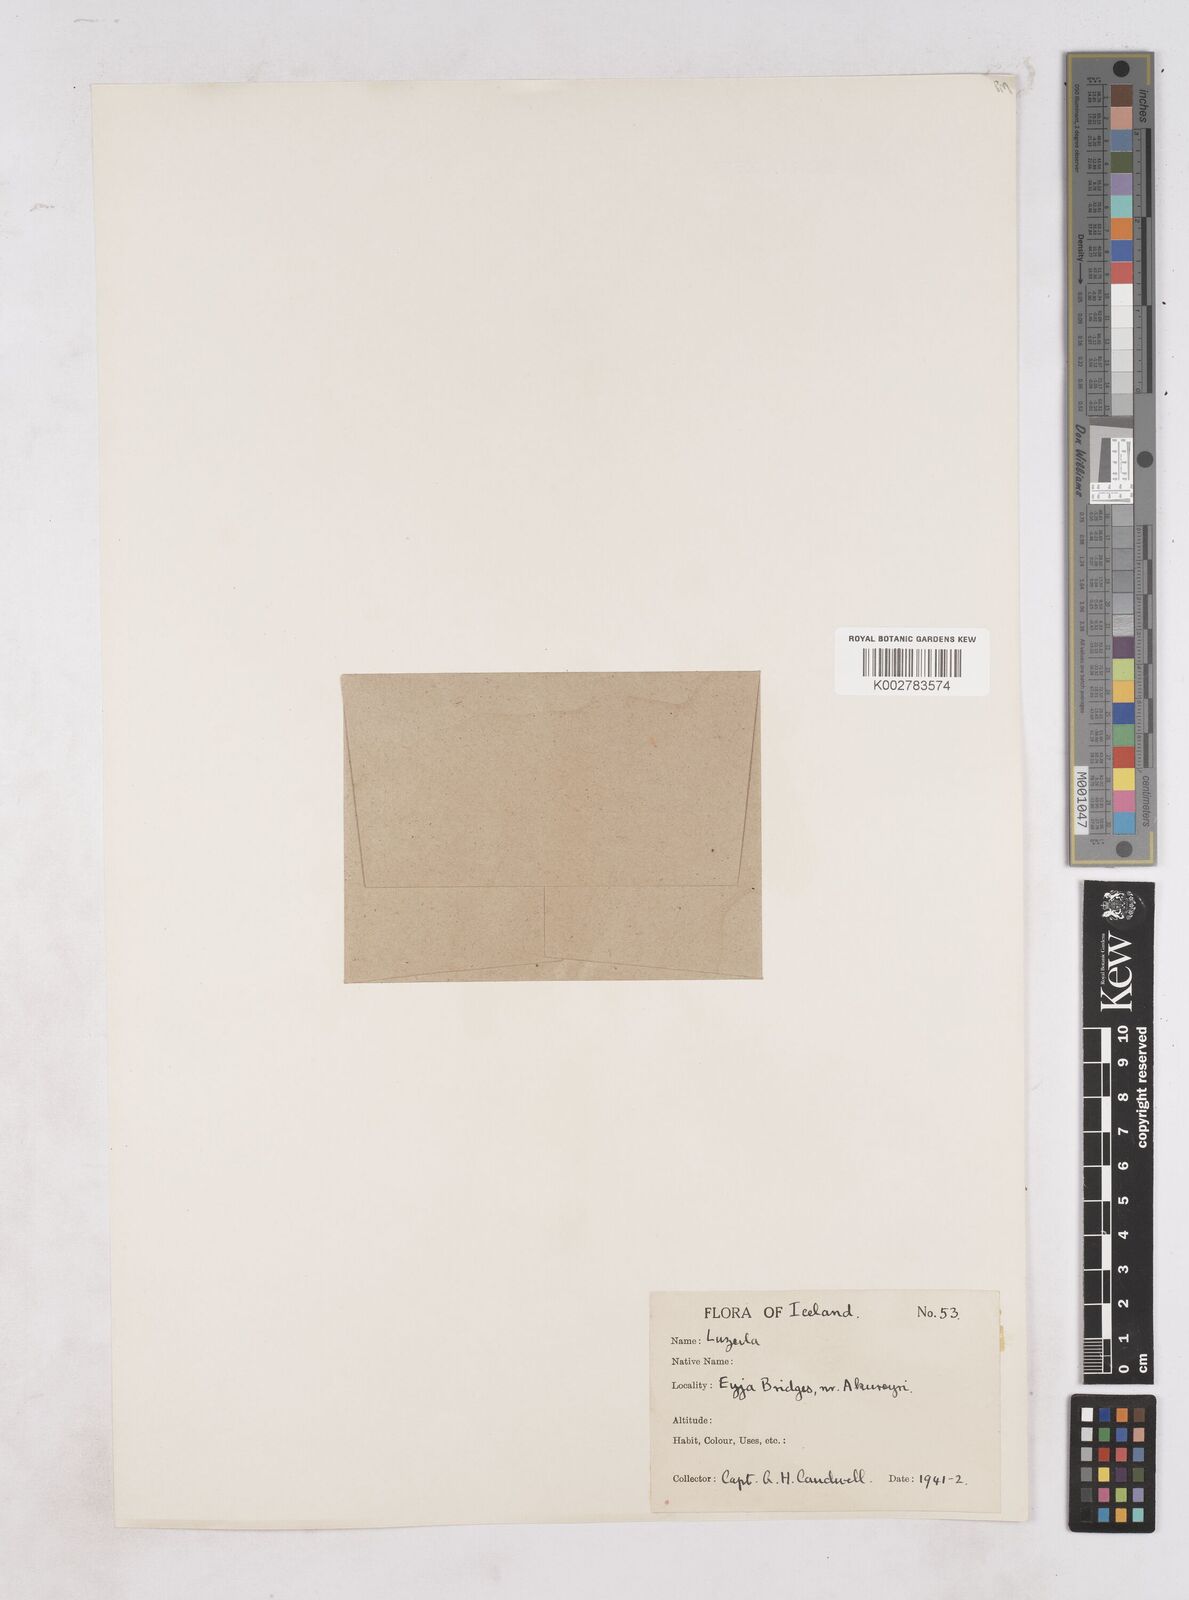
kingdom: Plantae
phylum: Tracheophyta
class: Liliopsida
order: Poales
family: Juncaceae
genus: Luzula
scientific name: Luzula
